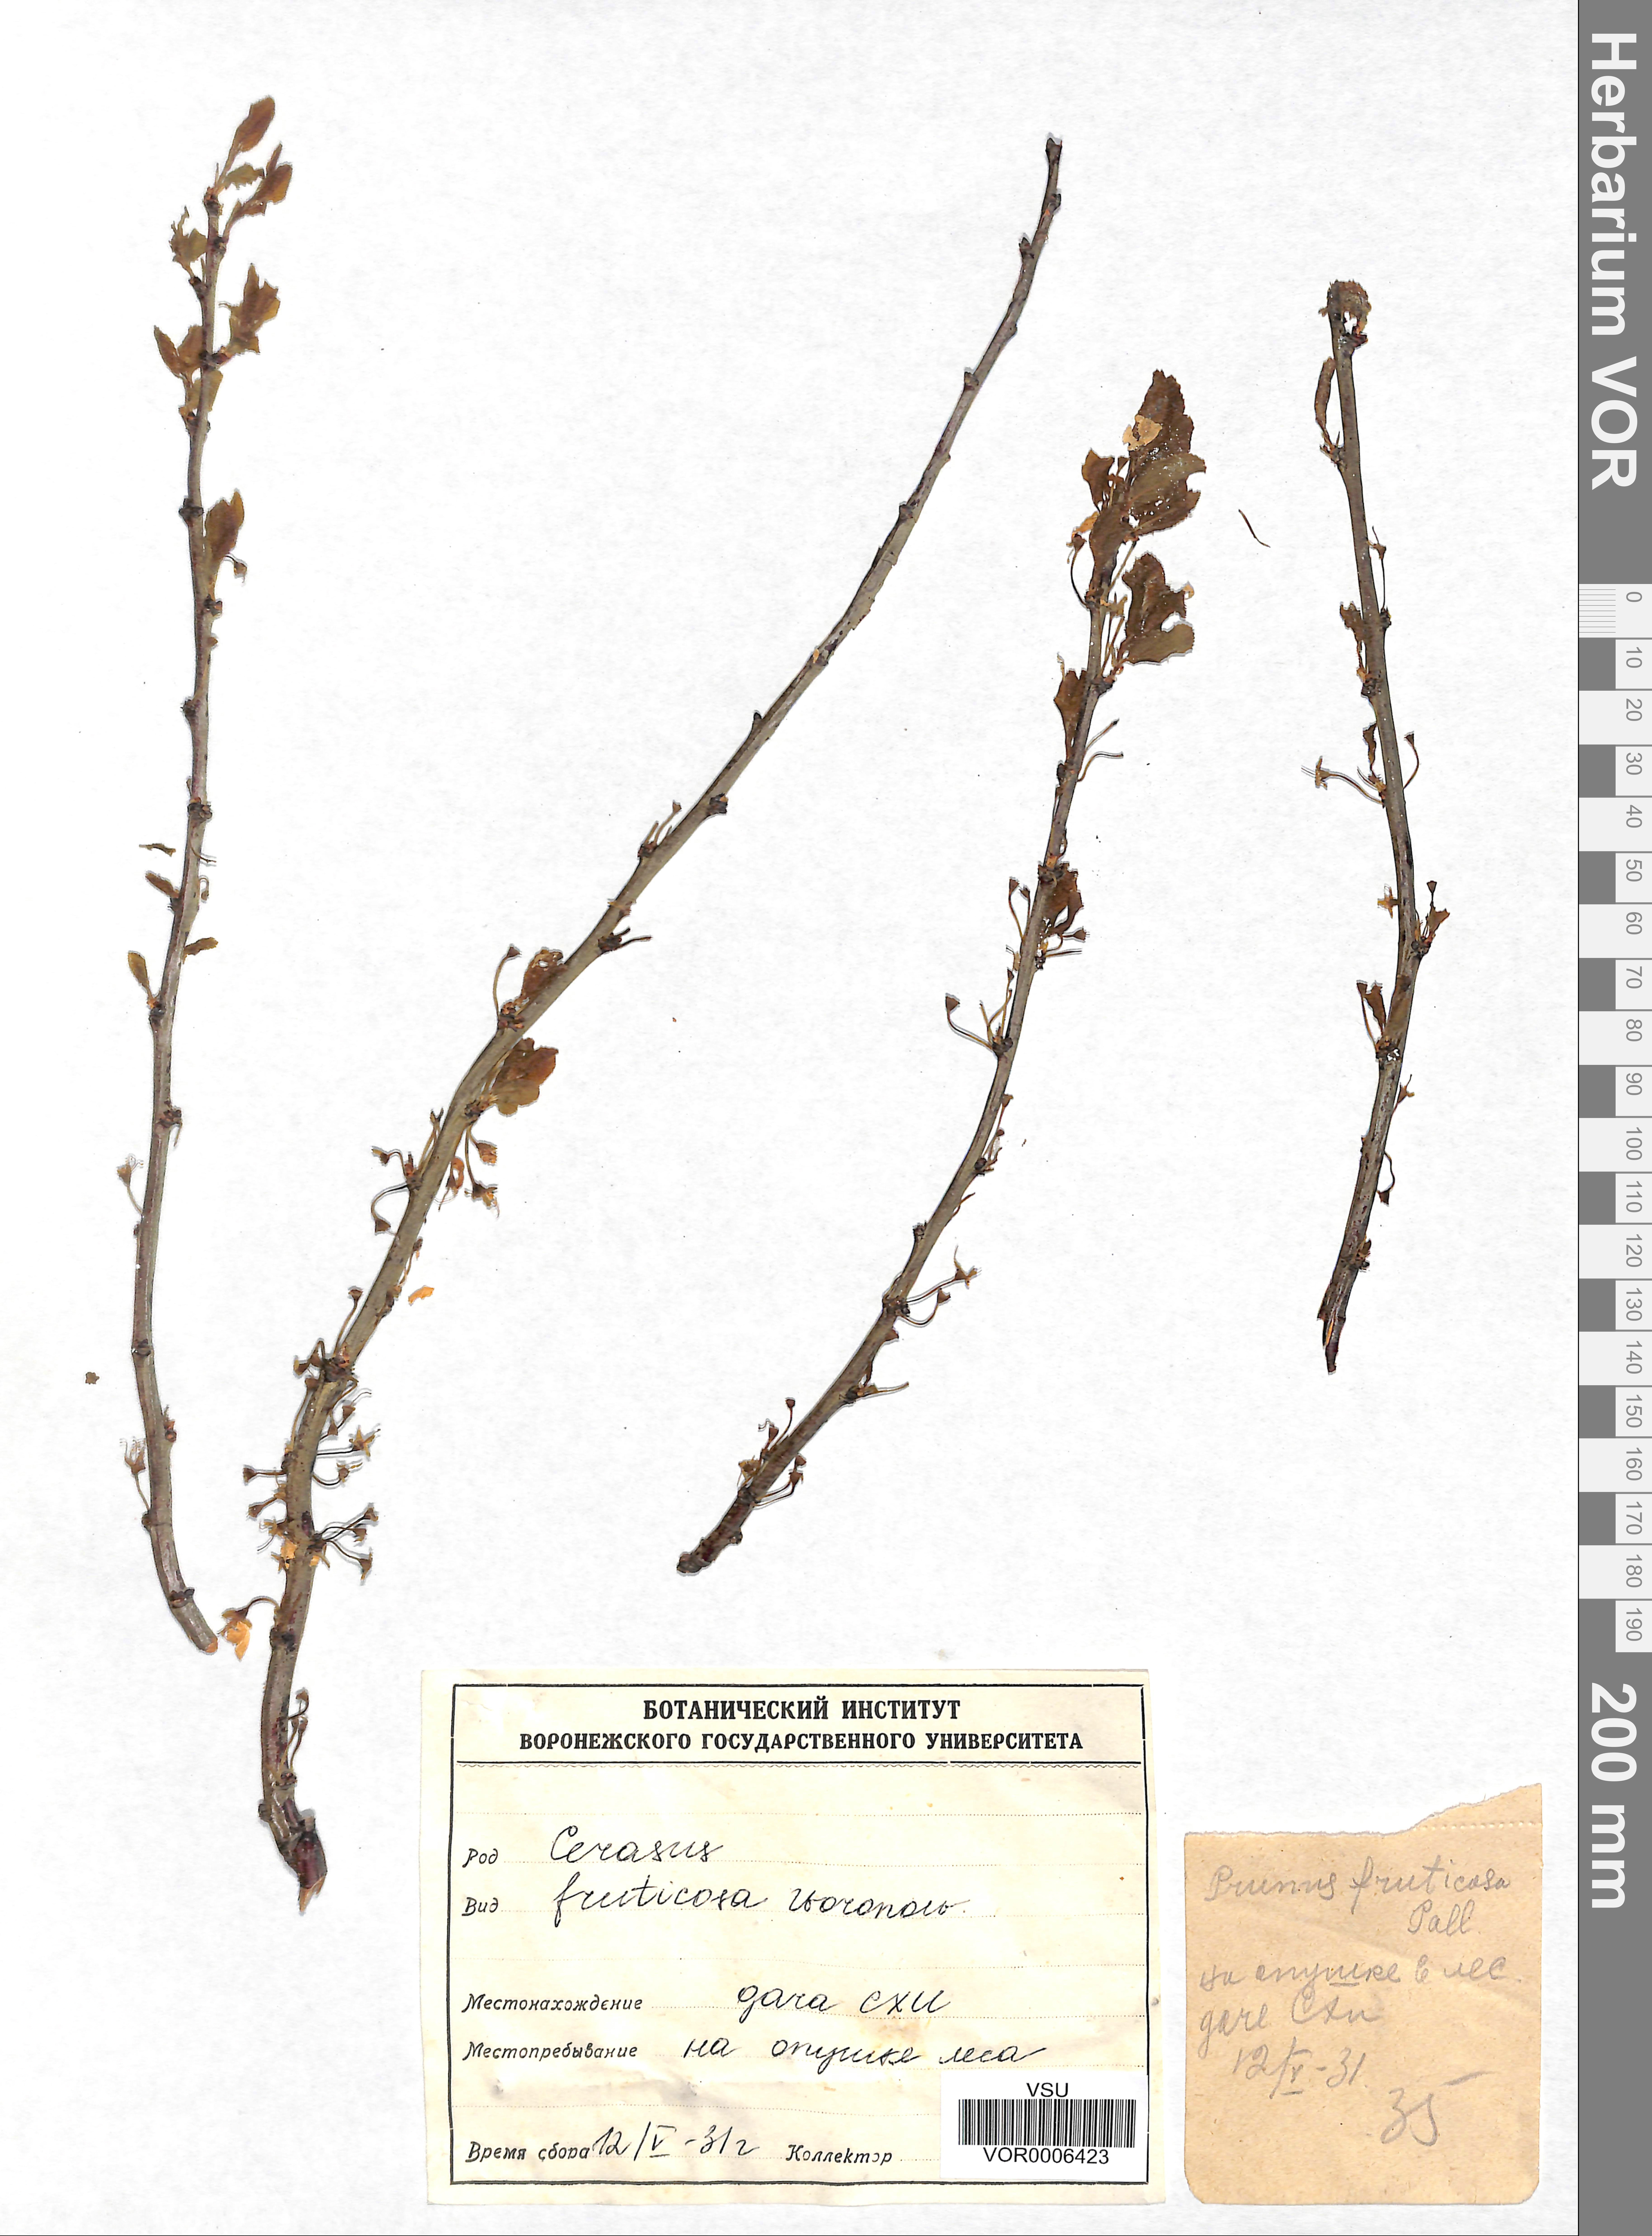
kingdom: Plantae
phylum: Tracheophyta
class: Magnoliopsida
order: Rosales
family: Rosaceae
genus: Prunus
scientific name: Prunus fruticosa
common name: European dwarf cherry
